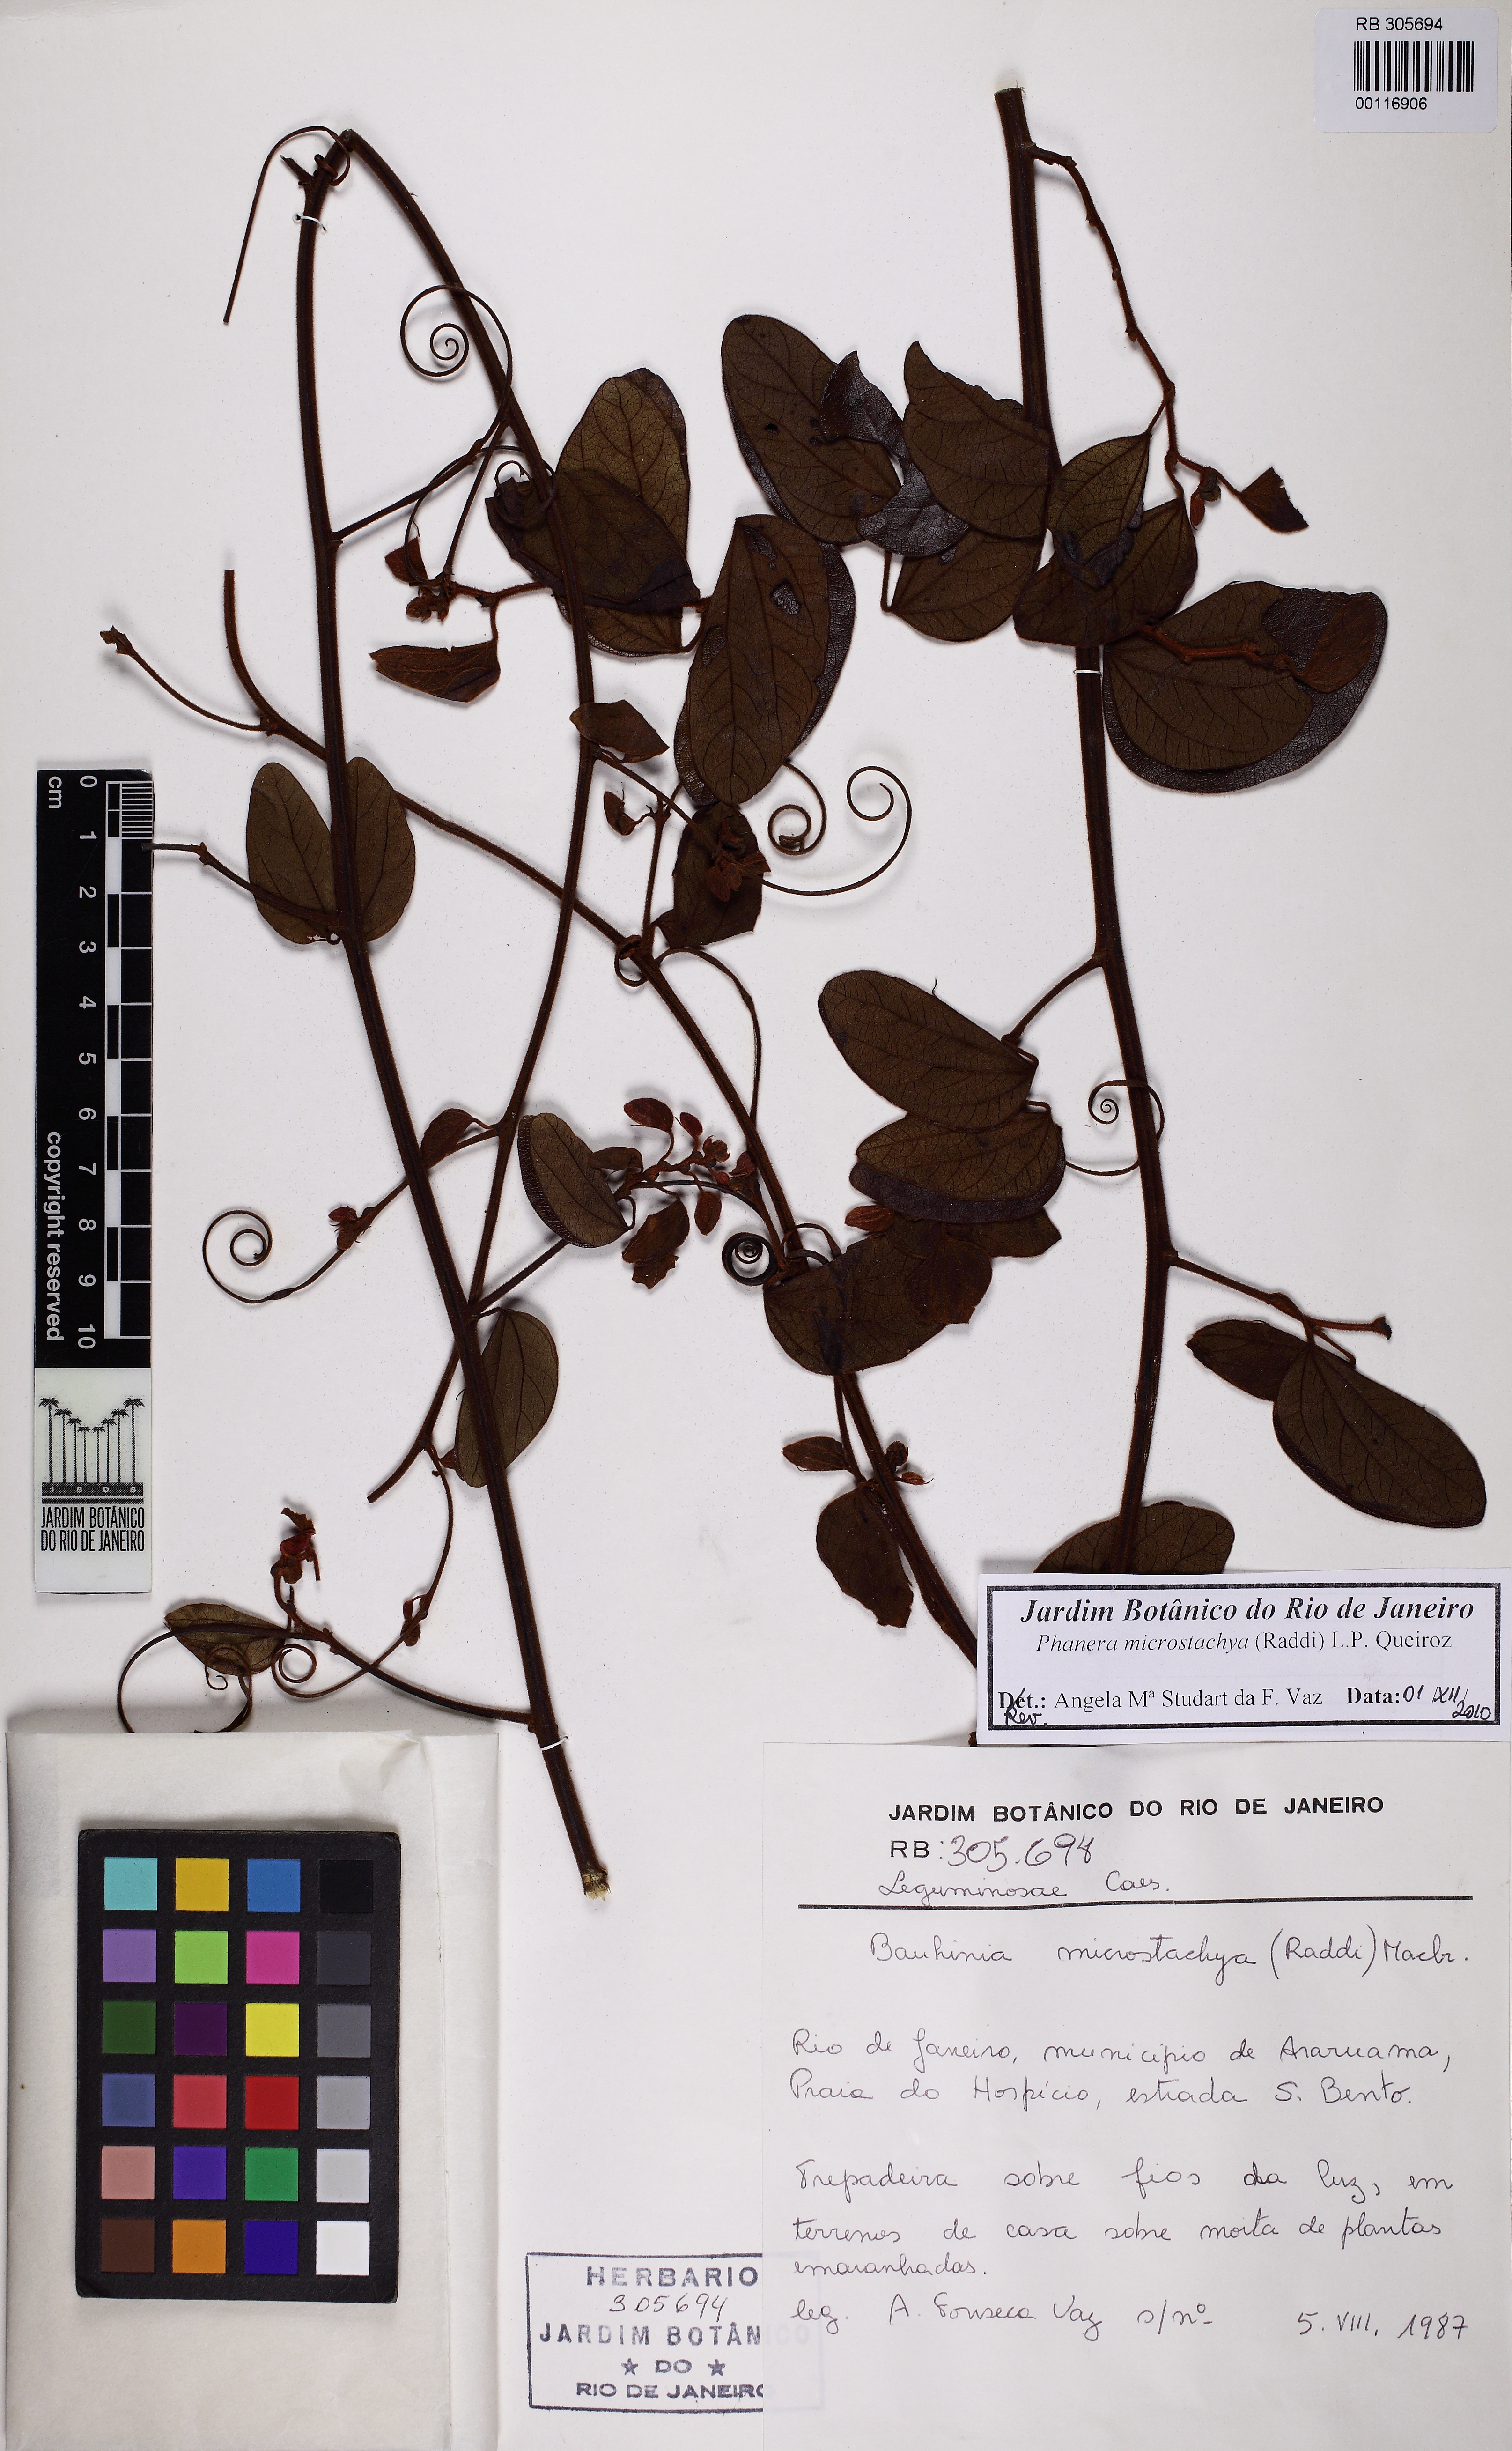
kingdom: Plantae
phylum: Tracheophyta
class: Magnoliopsida
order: Fabales
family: Fabaceae
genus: Schnella
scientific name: Schnella microstachya
